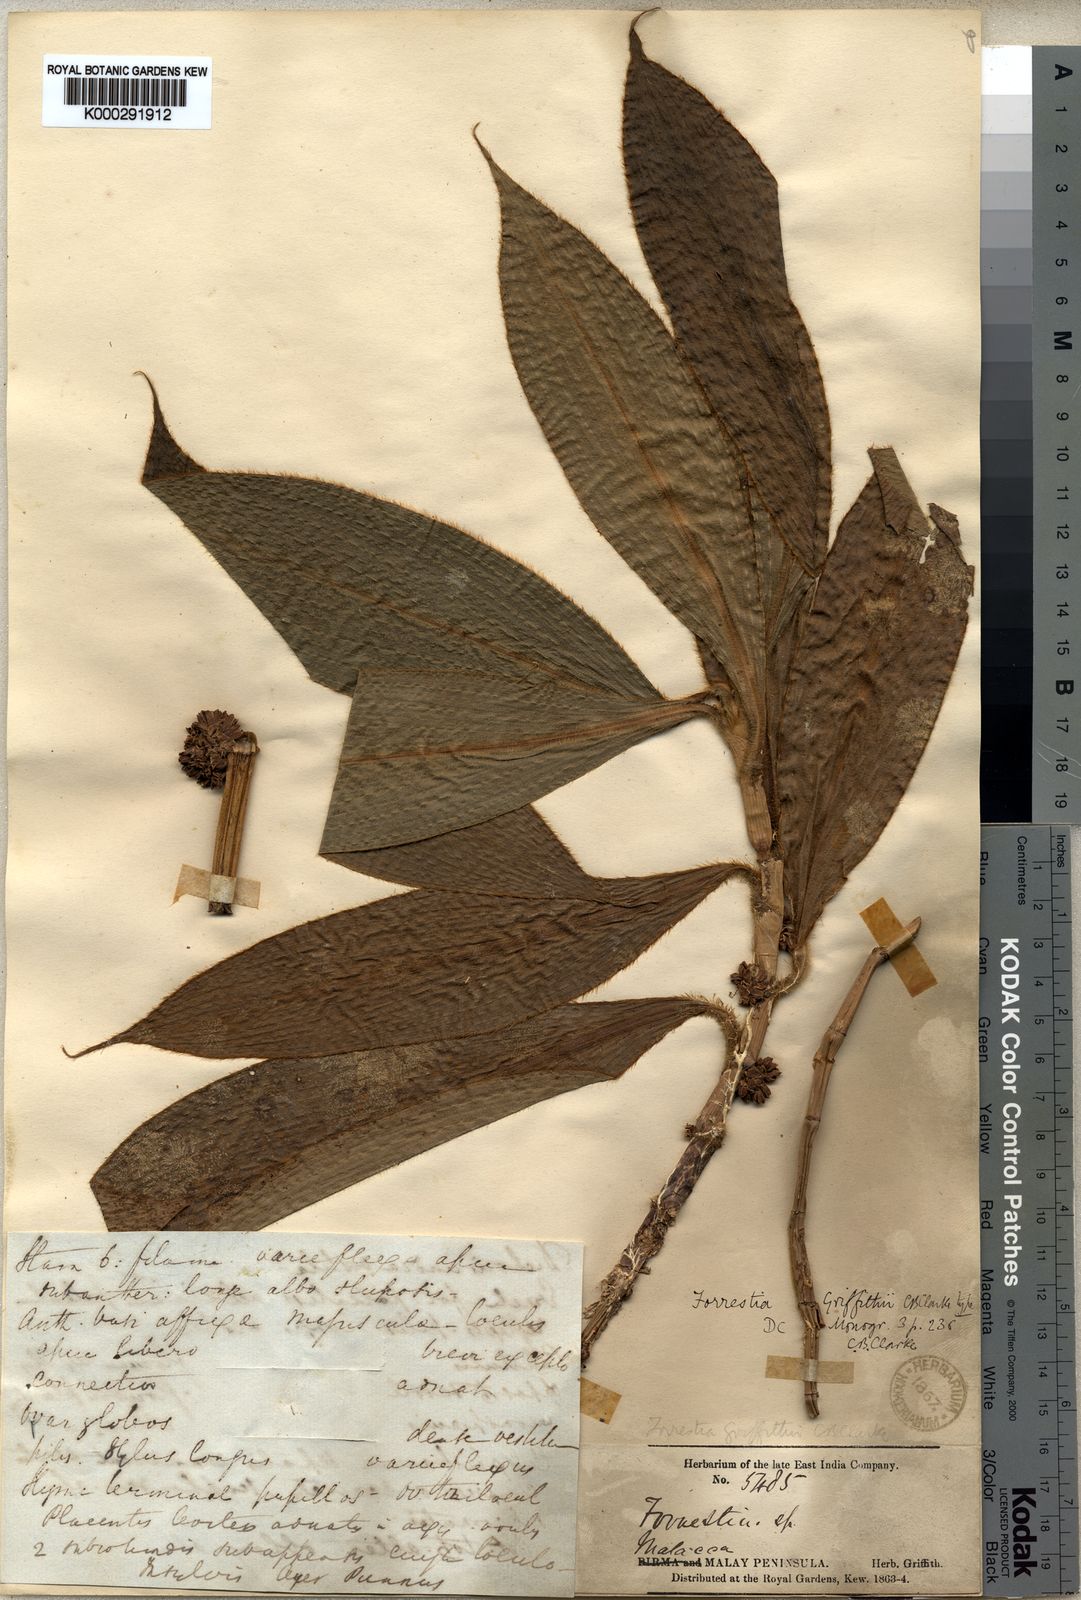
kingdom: Plantae
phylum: Tracheophyta
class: Liliopsida
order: Commelinales
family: Commelinaceae
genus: Amischotolype
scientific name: Amischotolype griffithii
